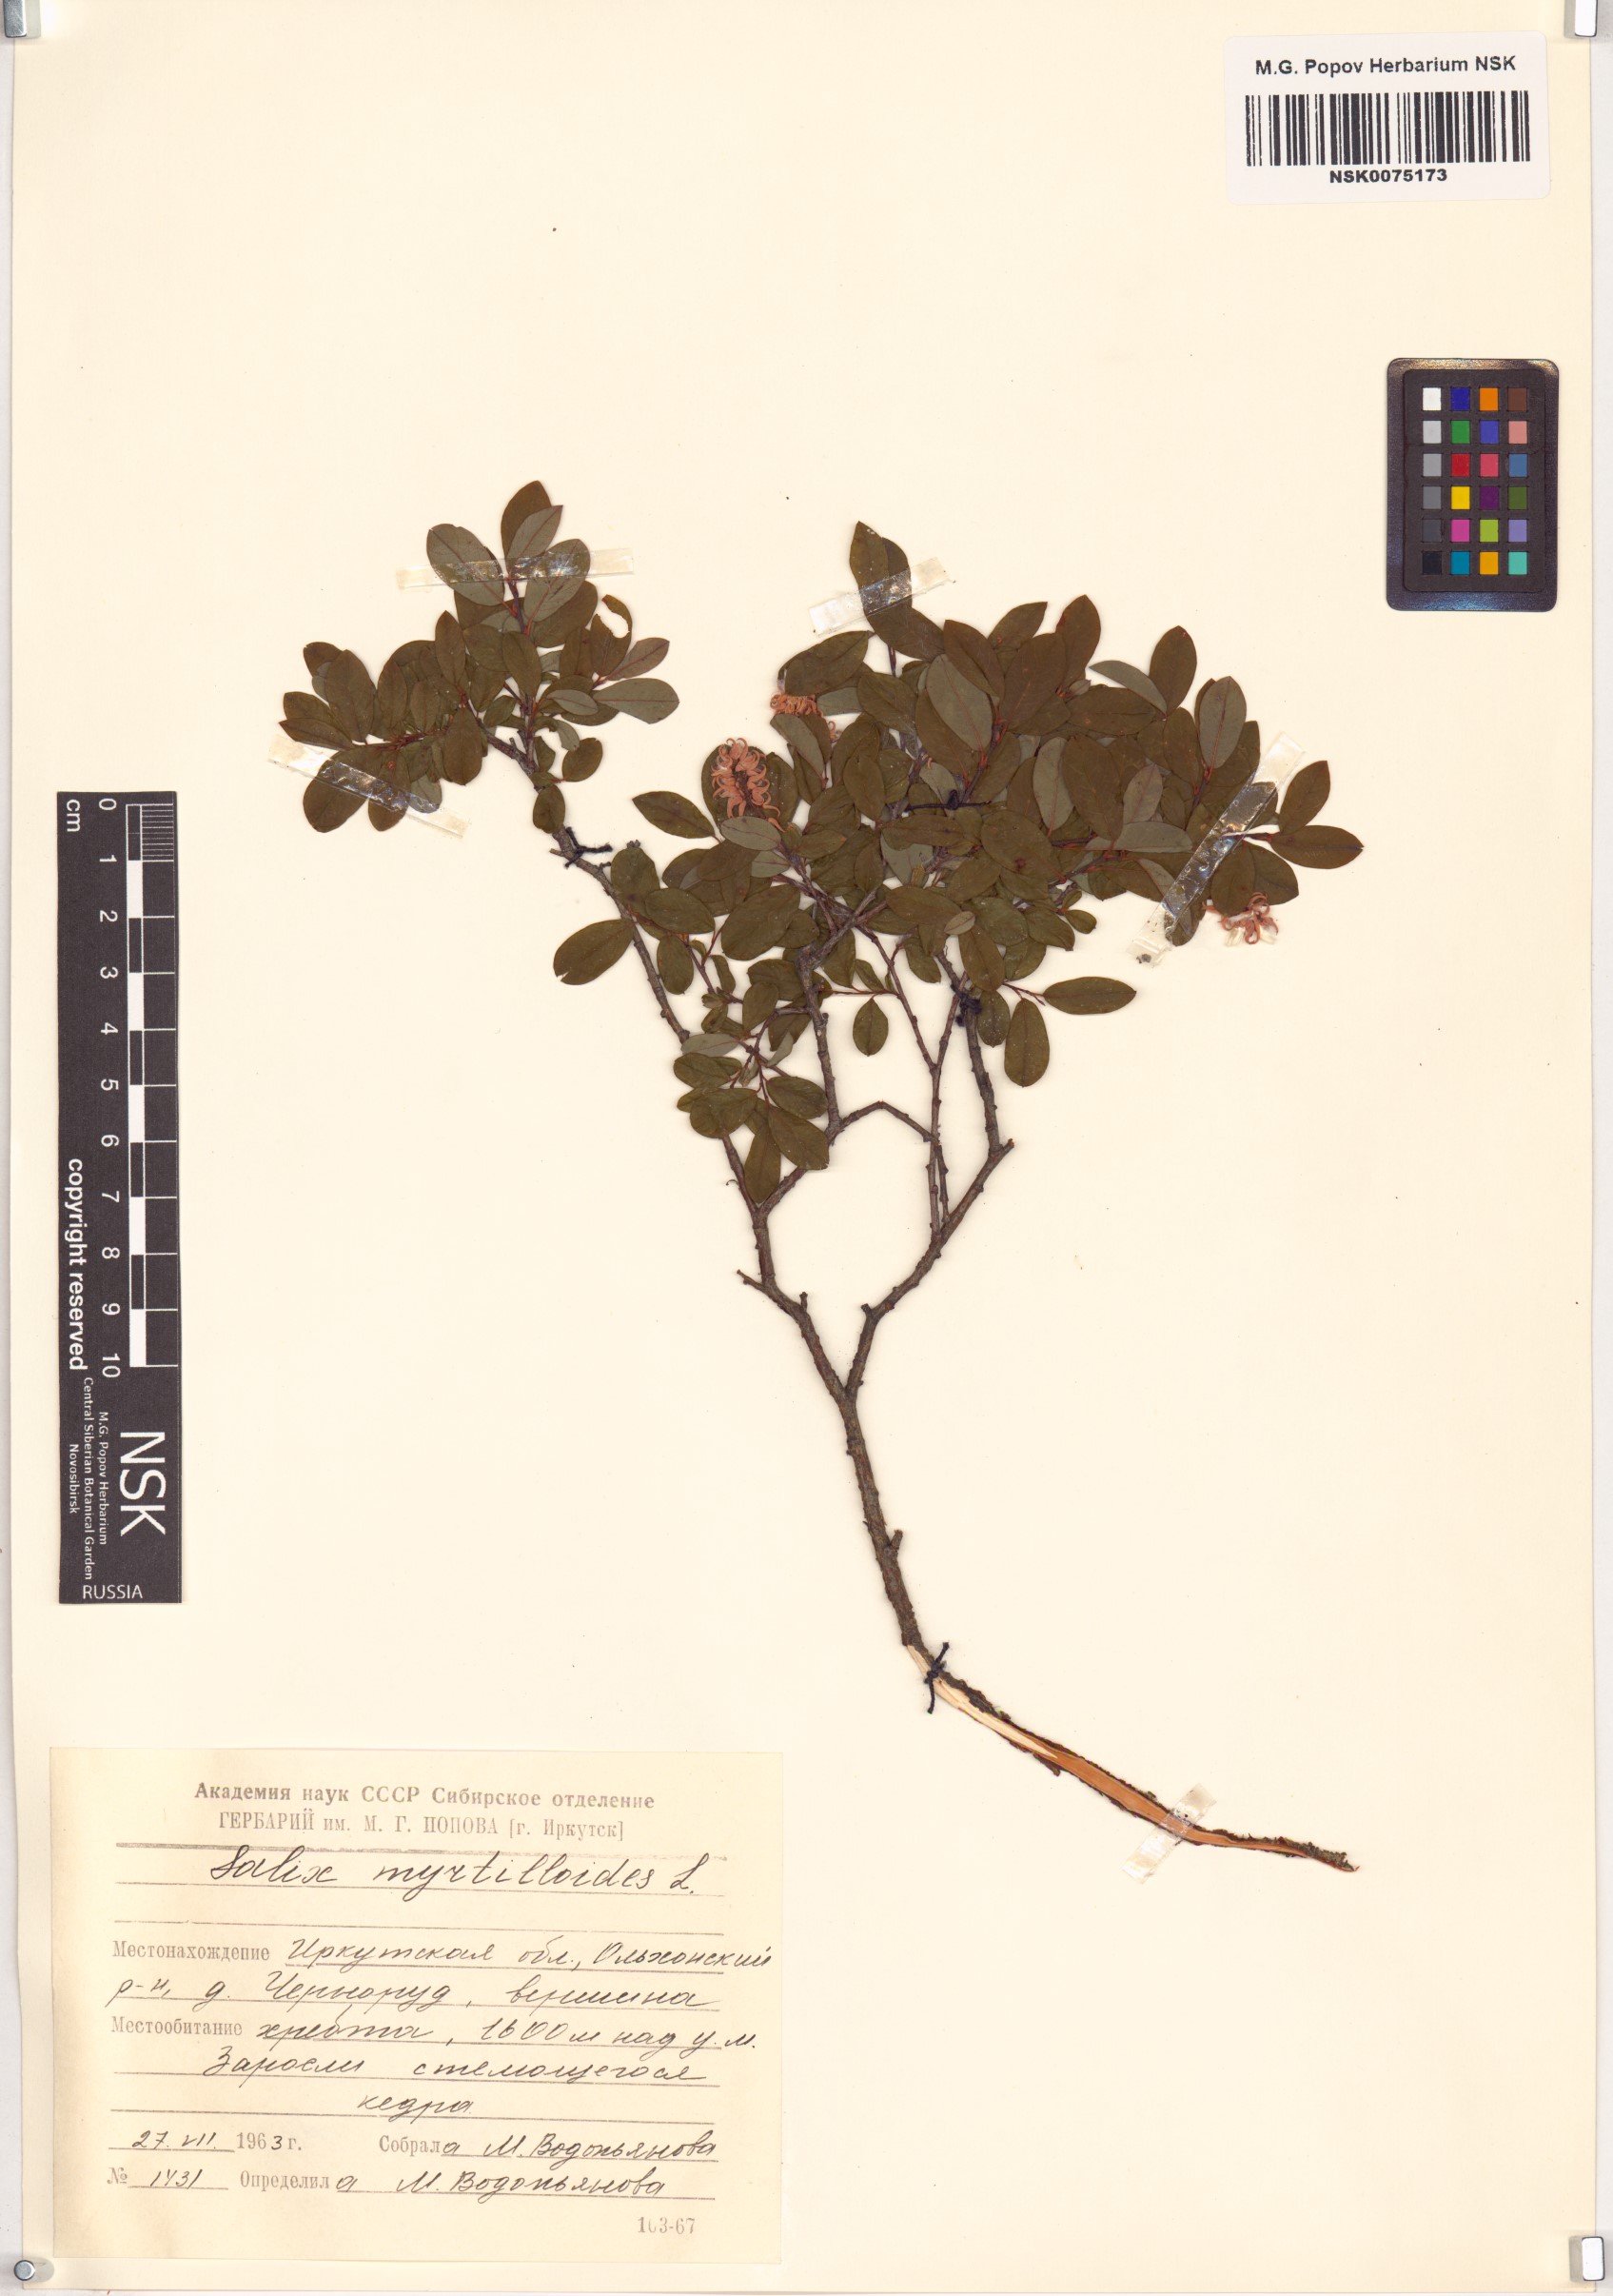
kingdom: Plantae
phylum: Tracheophyta
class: Magnoliopsida
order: Malpighiales
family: Salicaceae
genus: Salix
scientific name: Salix myrtilloides
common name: Myrtle-leaved willow
